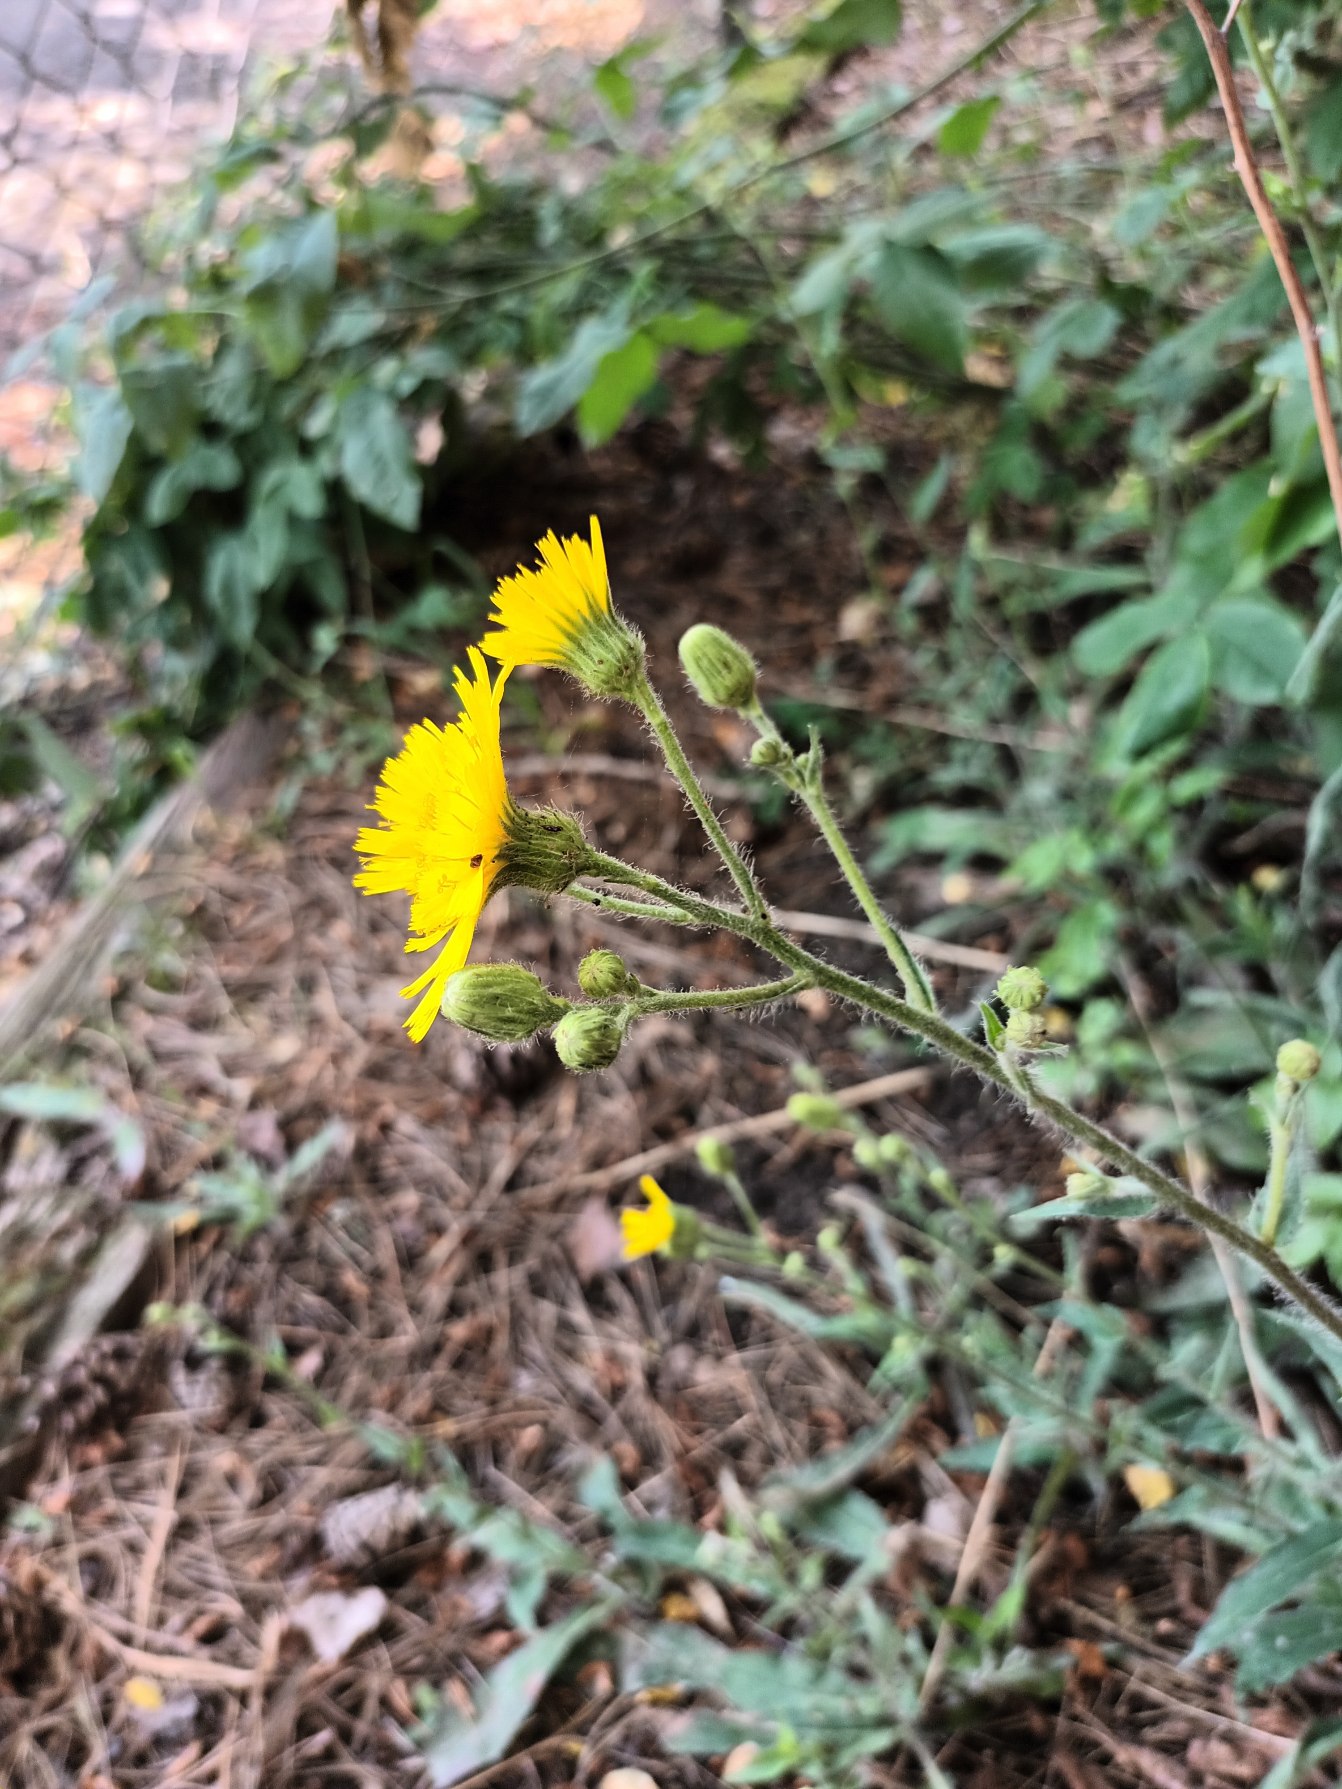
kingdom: Plantae
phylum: Tracheophyta
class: Magnoliopsida
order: Asterales
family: Asteraceae
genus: Hieracium
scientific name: Hieracium sabaudum
